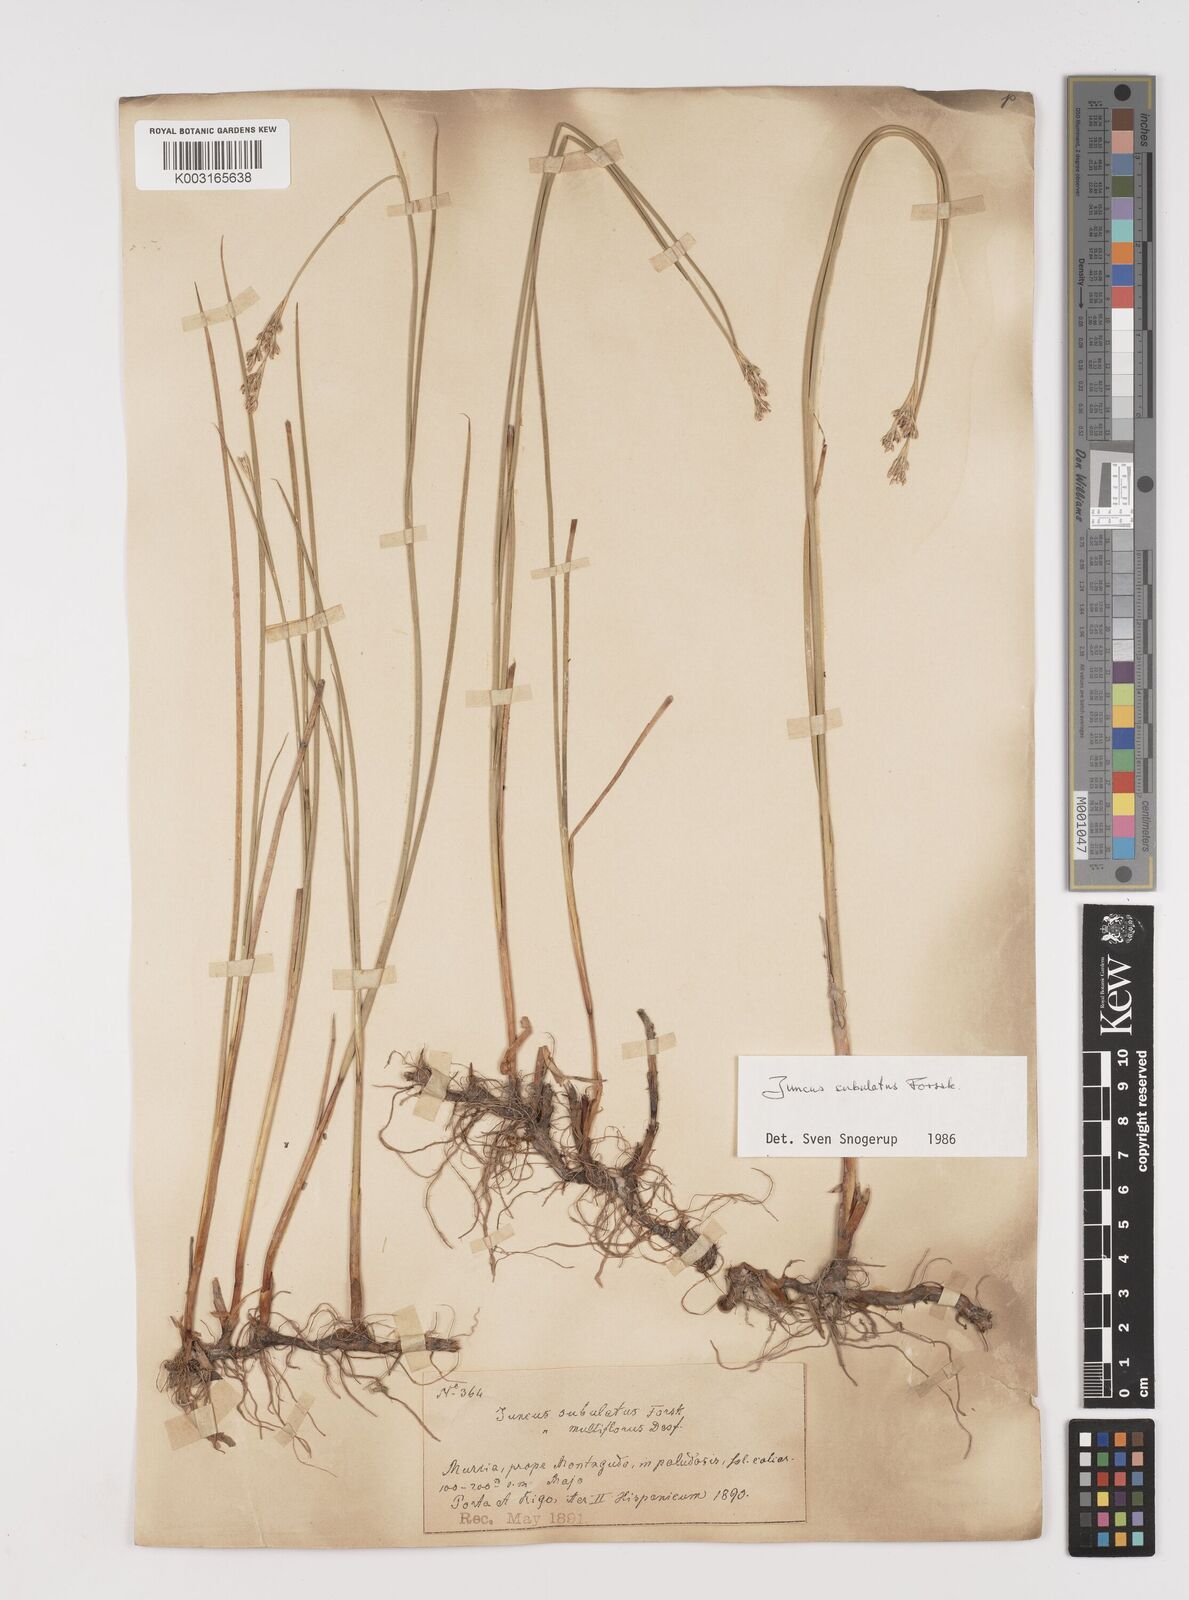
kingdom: Plantae
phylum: Tracheophyta
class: Liliopsida
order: Poales
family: Juncaceae
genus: Juncus
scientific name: Juncus subulatus
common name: Somerset rush
